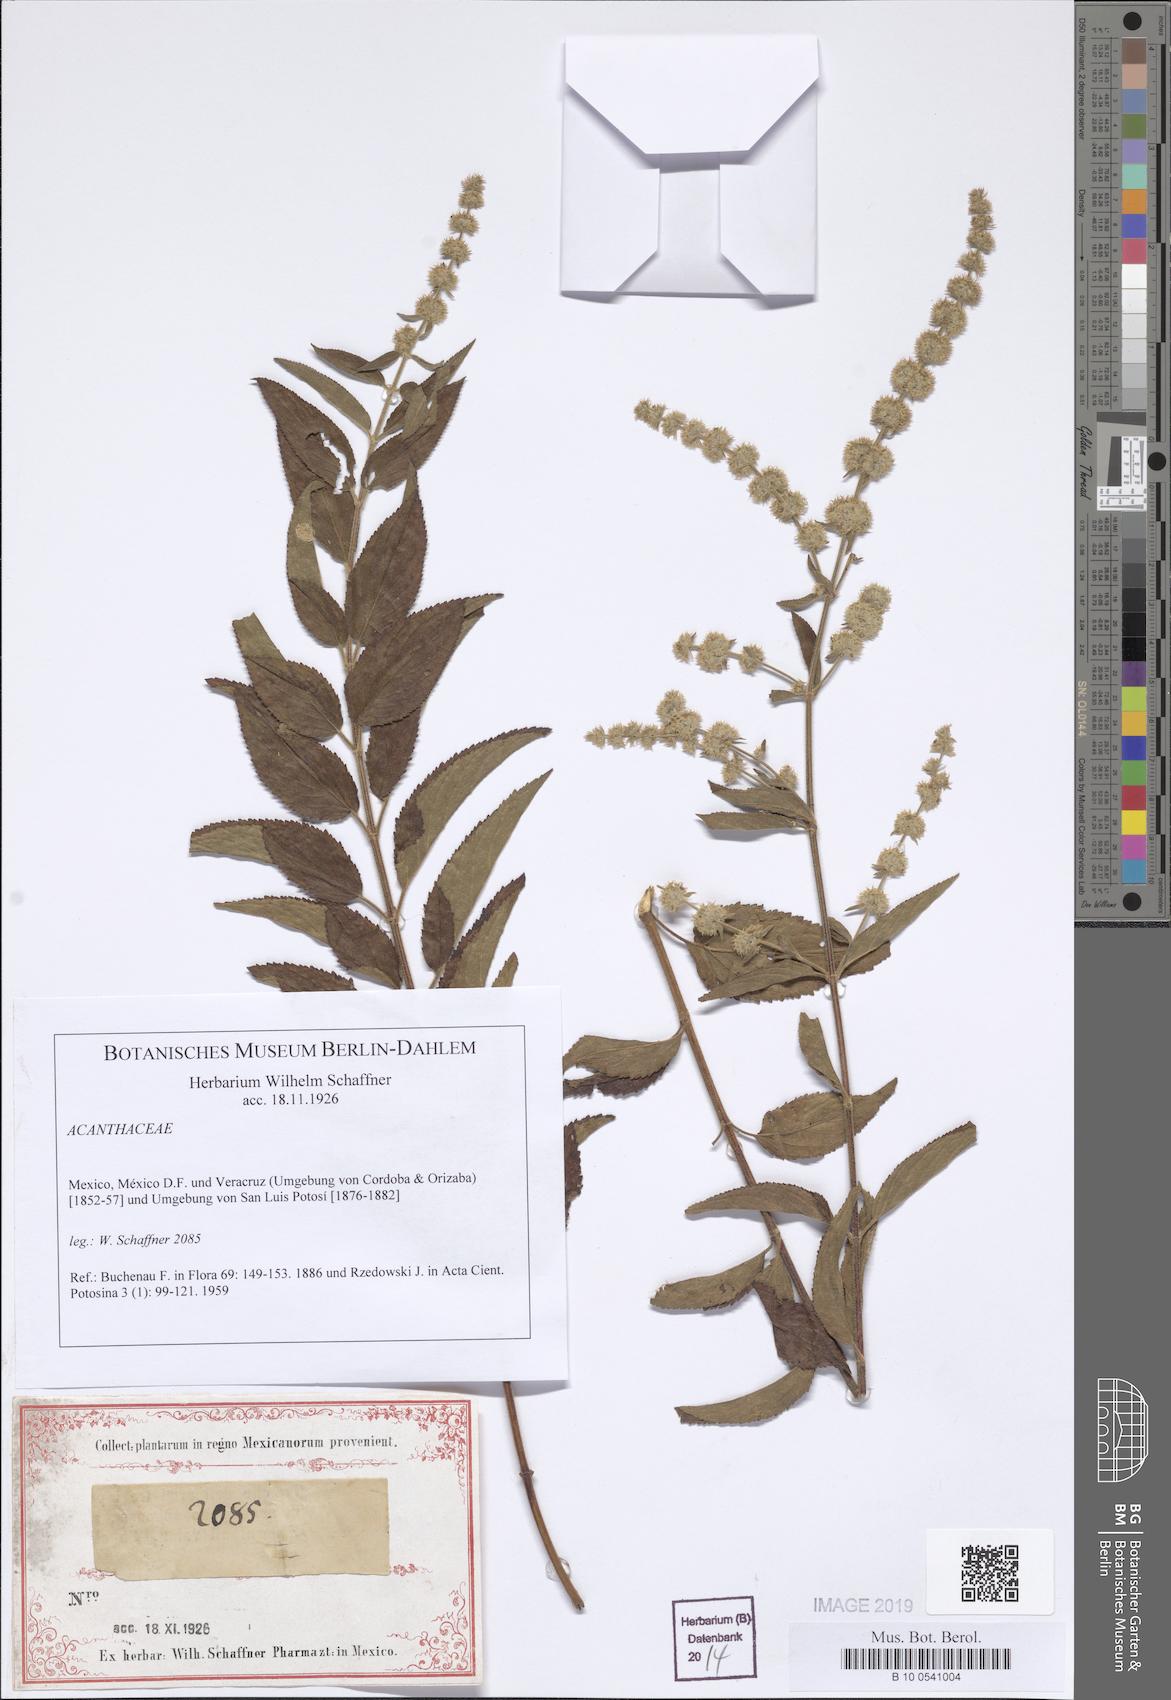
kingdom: Plantae
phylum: Tracheophyta
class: Magnoliopsida
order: Lamiales
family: Acanthaceae
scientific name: Acanthaceae
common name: Acanthaceae
